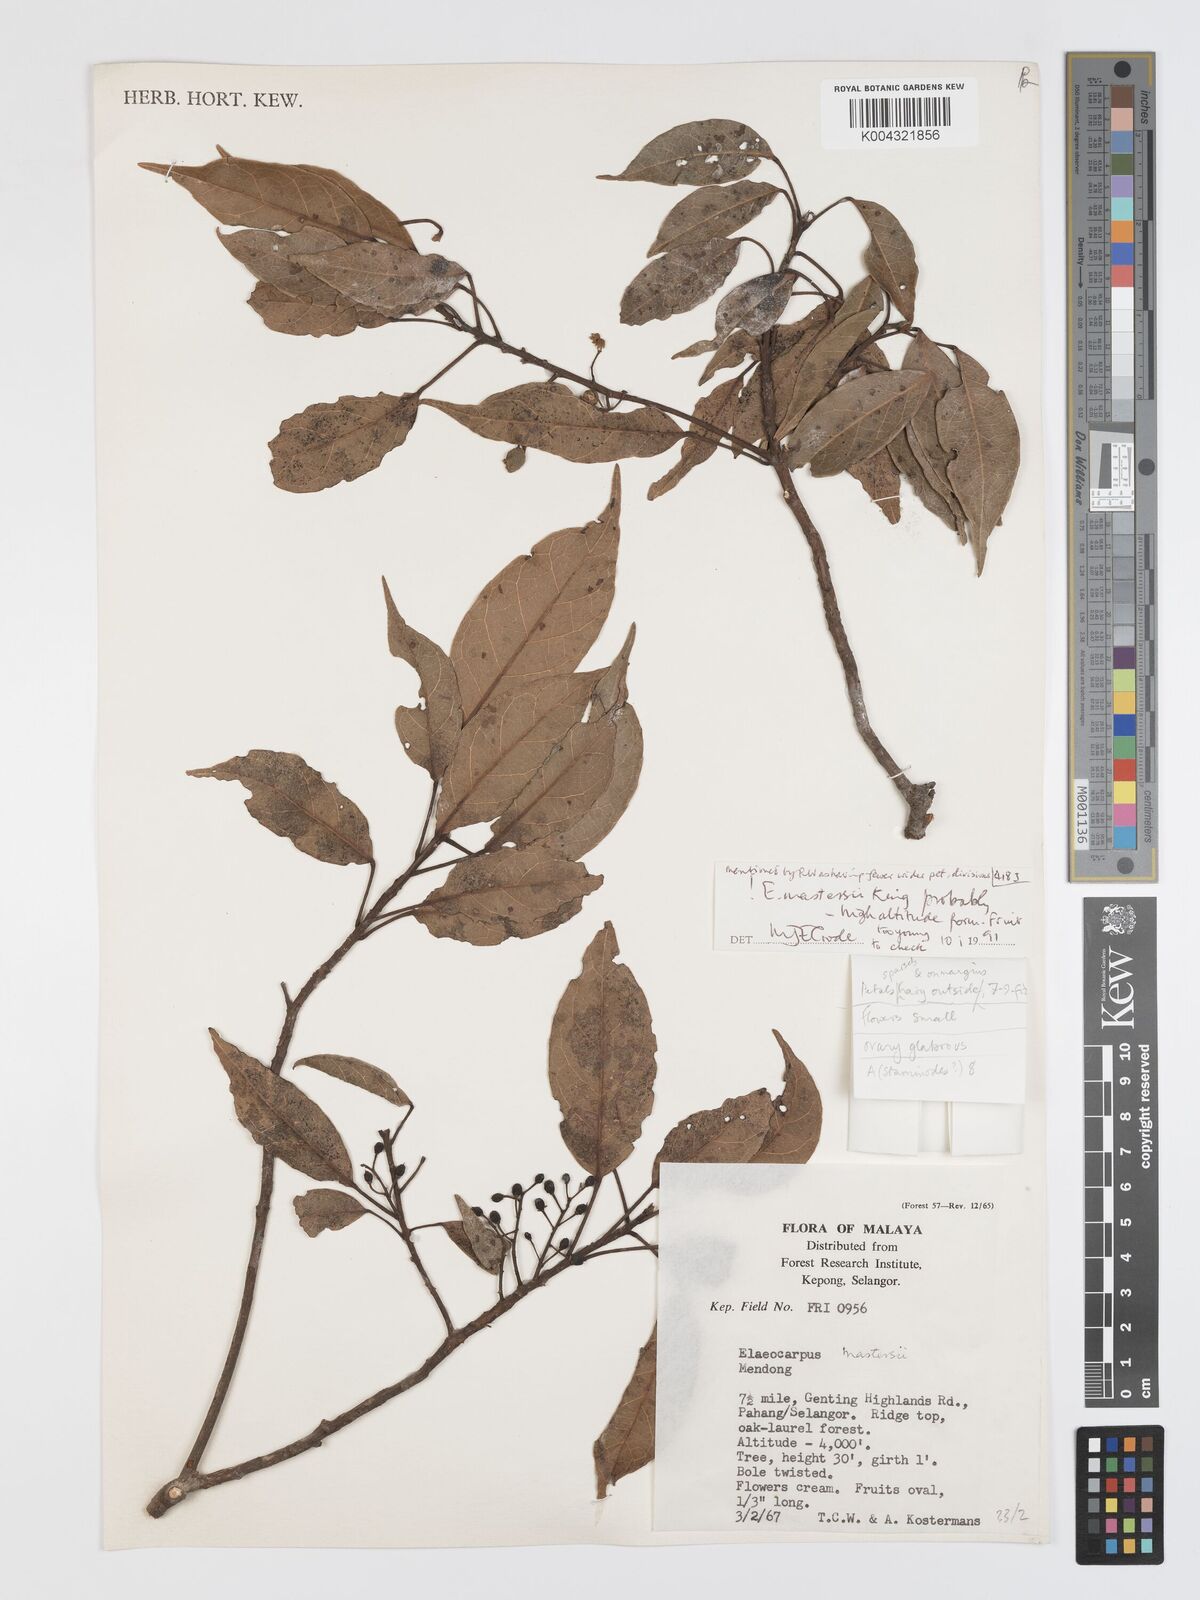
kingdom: Plantae
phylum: Tracheophyta
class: Magnoliopsida
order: Oxalidales
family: Elaeocarpaceae
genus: Elaeocarpus
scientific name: Elaeocarpus mastersii
